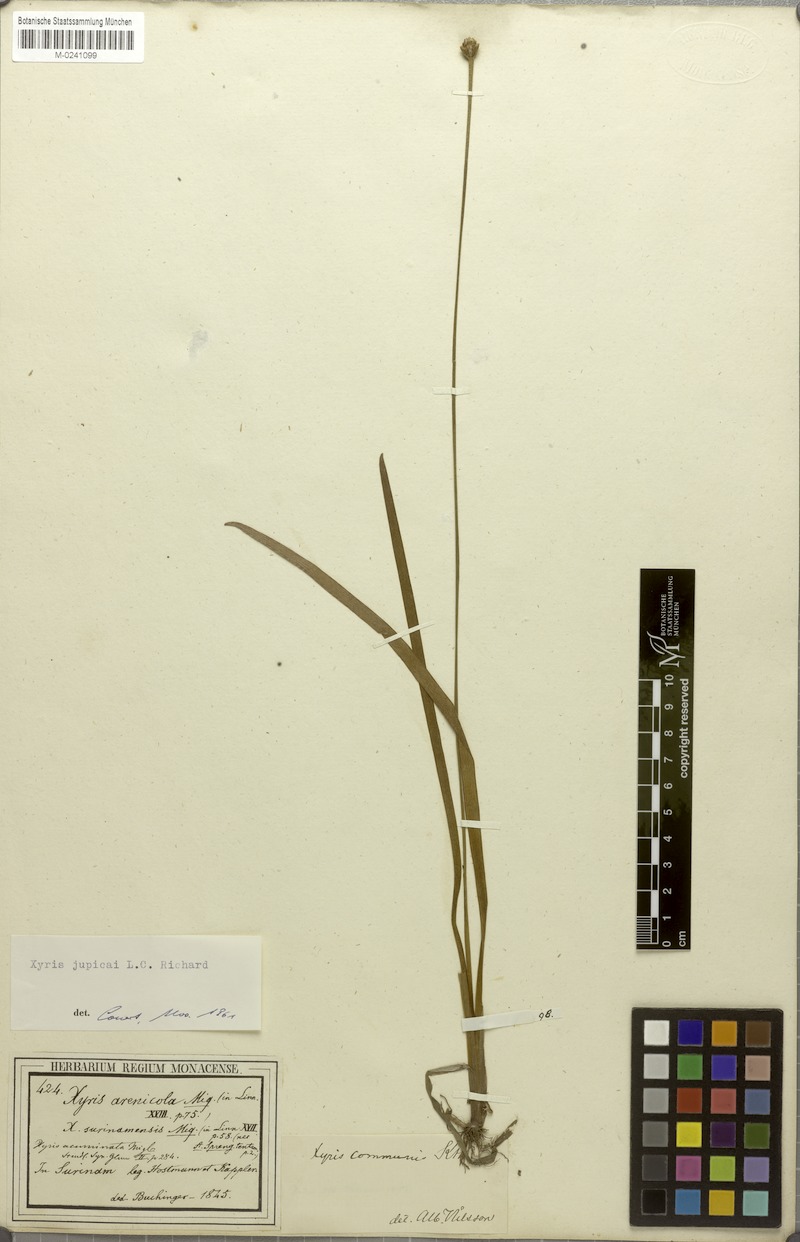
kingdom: Plantae
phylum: Tracheophyta
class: Liliopsida
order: Poales
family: Xyridaceae
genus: Xyris
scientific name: Xyris jupicai
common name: Richard's yelloweyed grass
